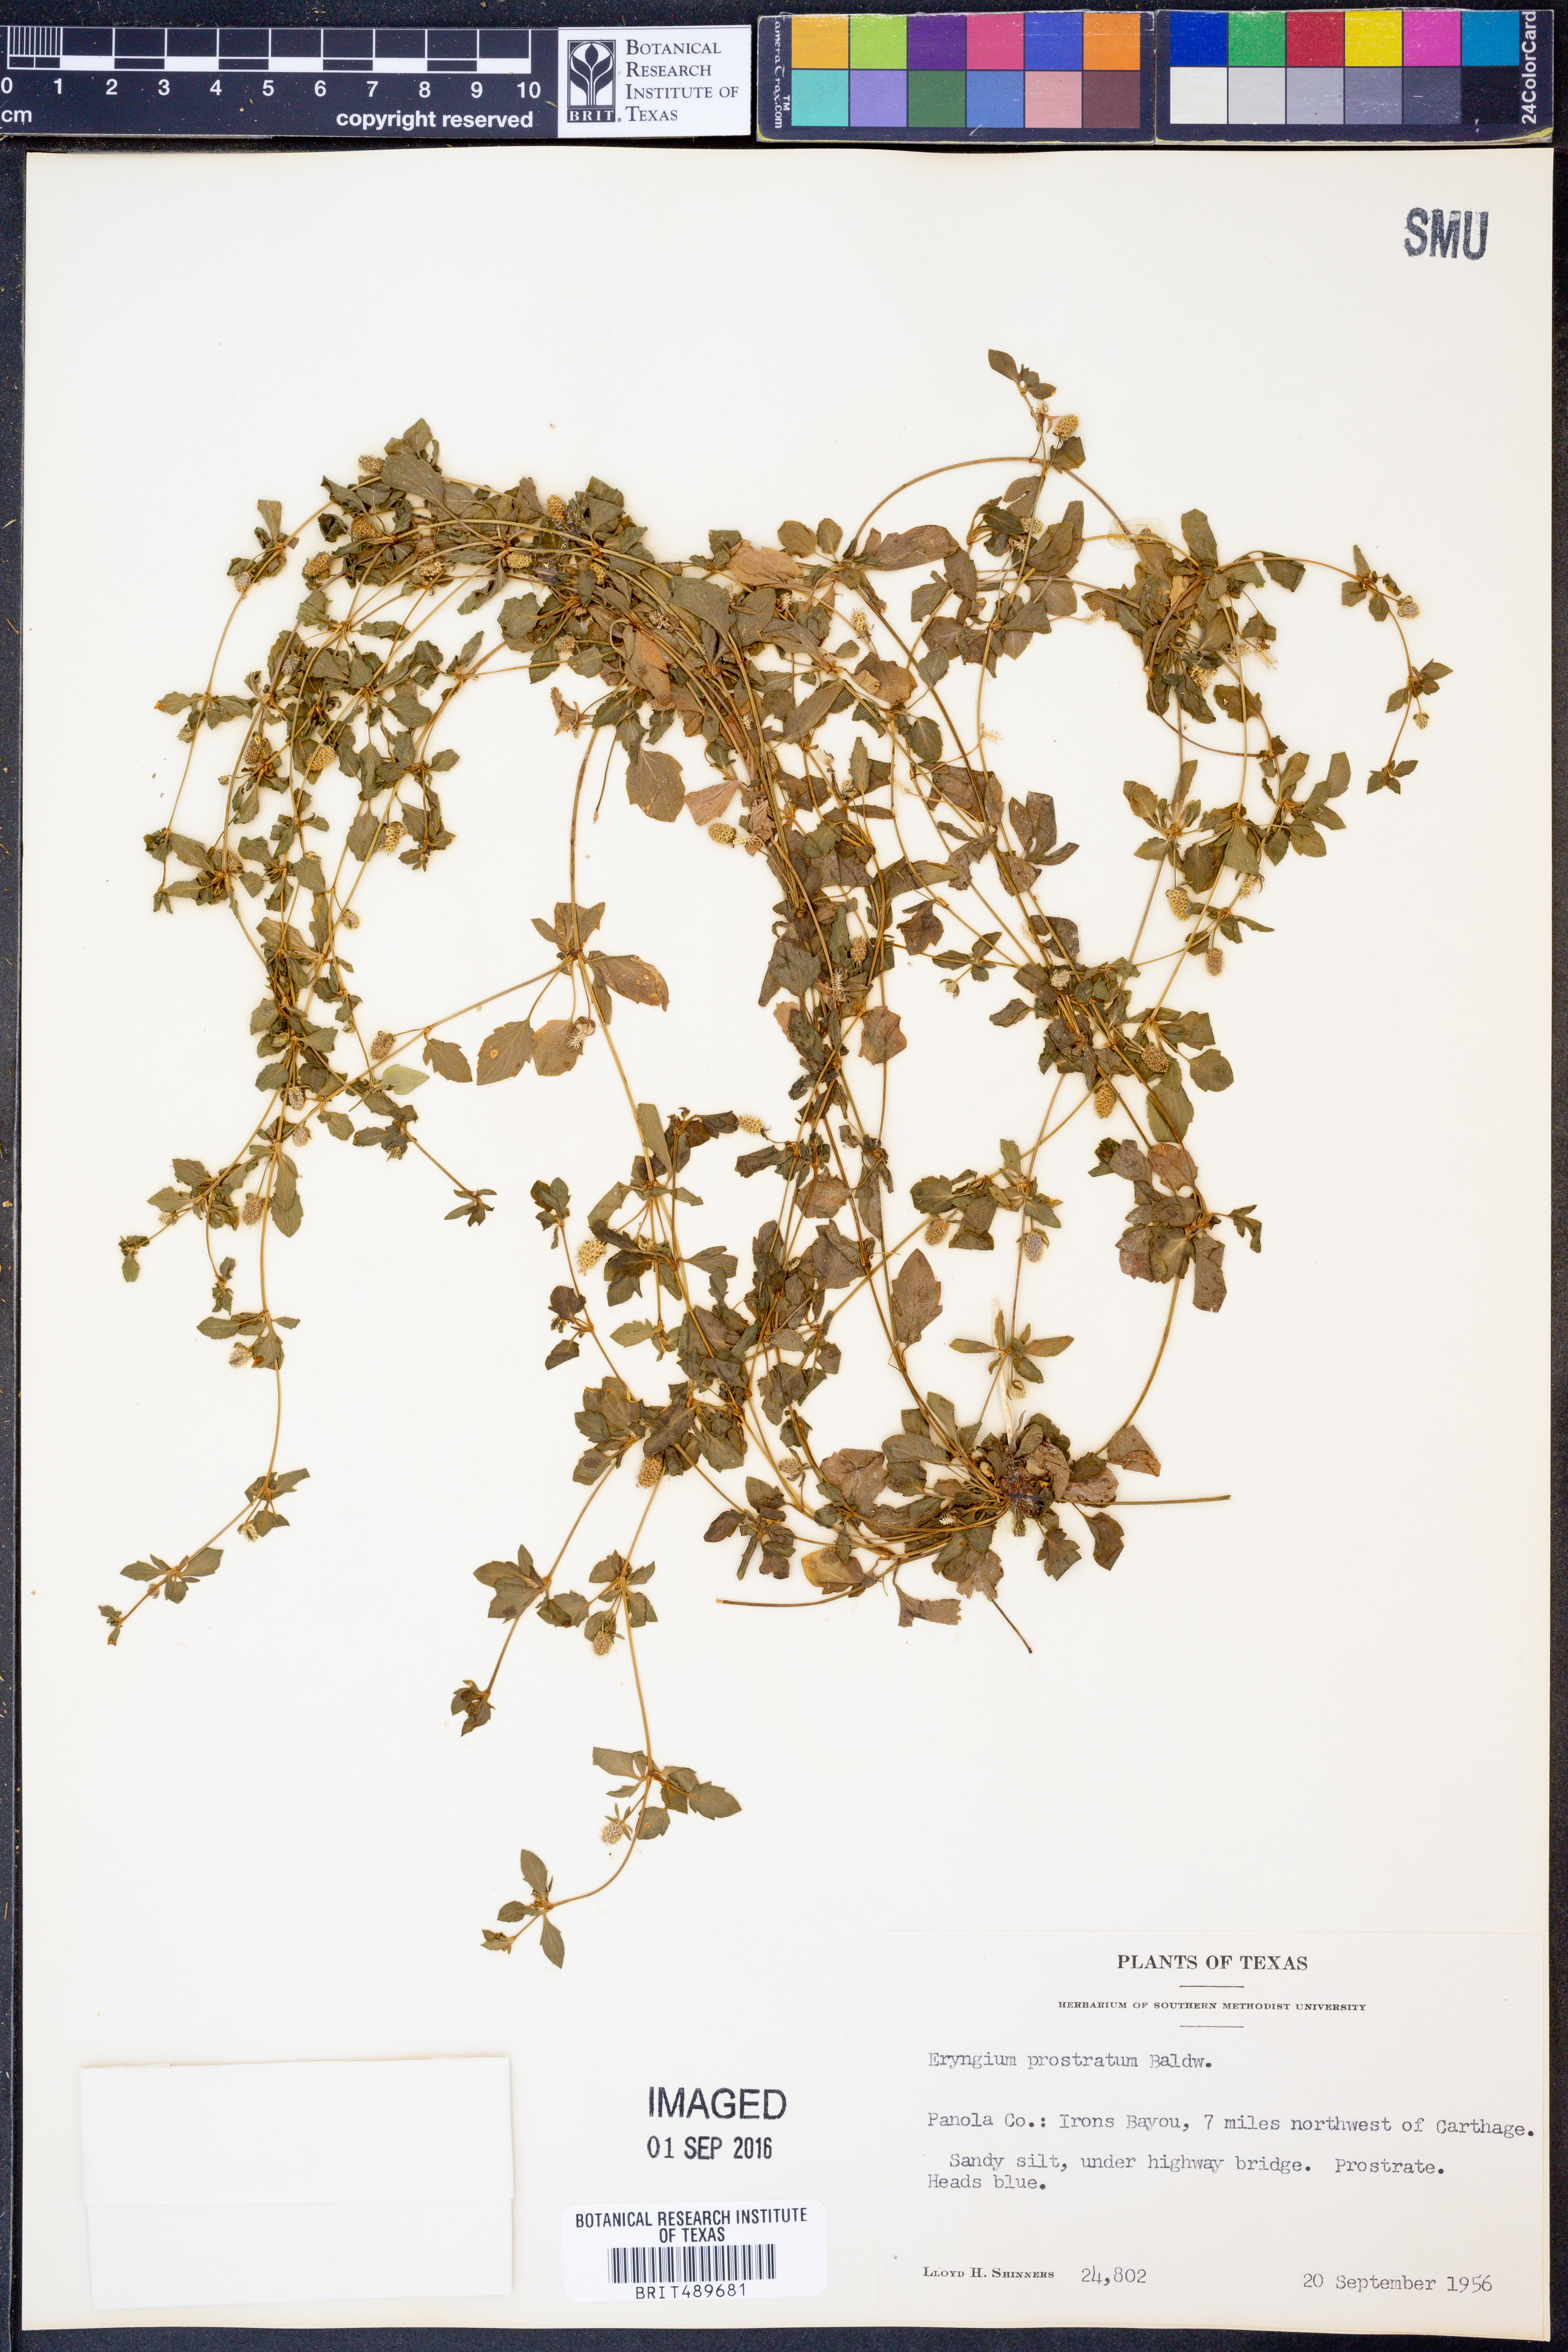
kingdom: Plantae
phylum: Tracheophyta
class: Magnoliopsida
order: Apiales
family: Apiaceae
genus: Eryngium
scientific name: Eryngium prostratum
